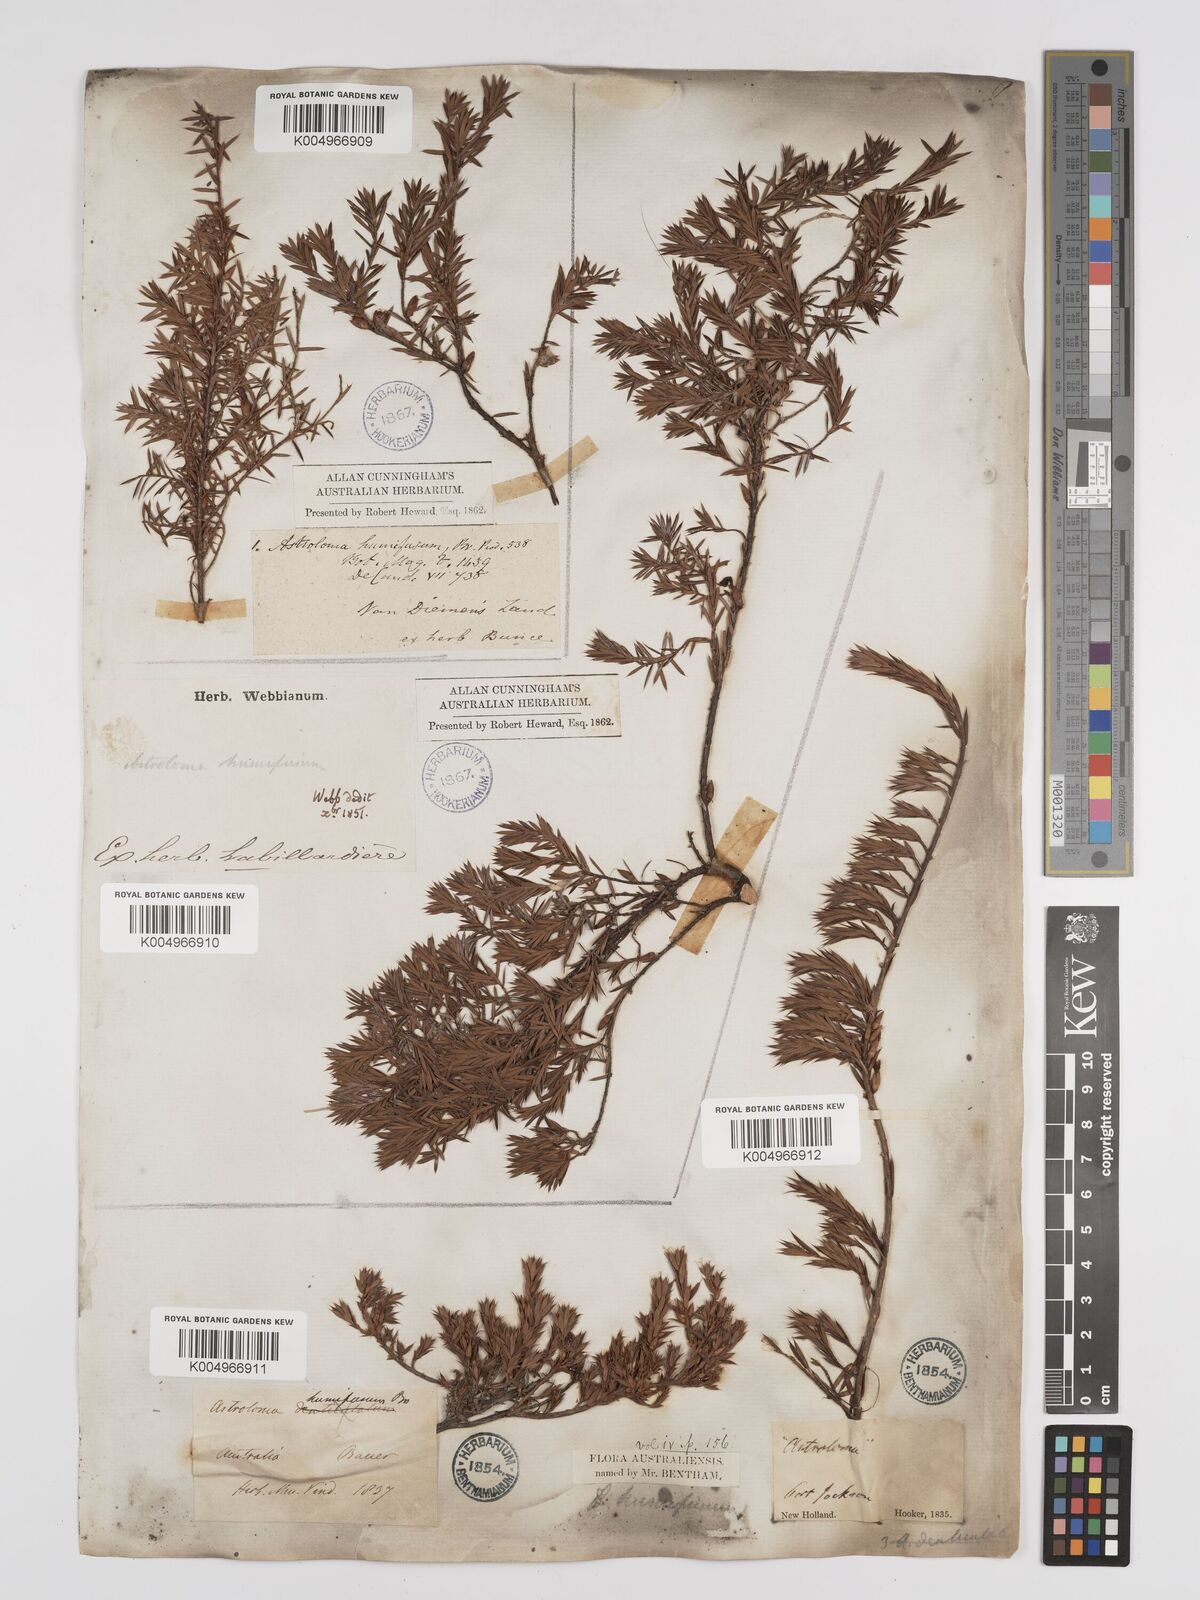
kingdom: Plantae
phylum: Tracheophyta
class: Magnoliopsida
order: Ericales
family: Ericaceae
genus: Styphelia
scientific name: Styphelia humifusa
